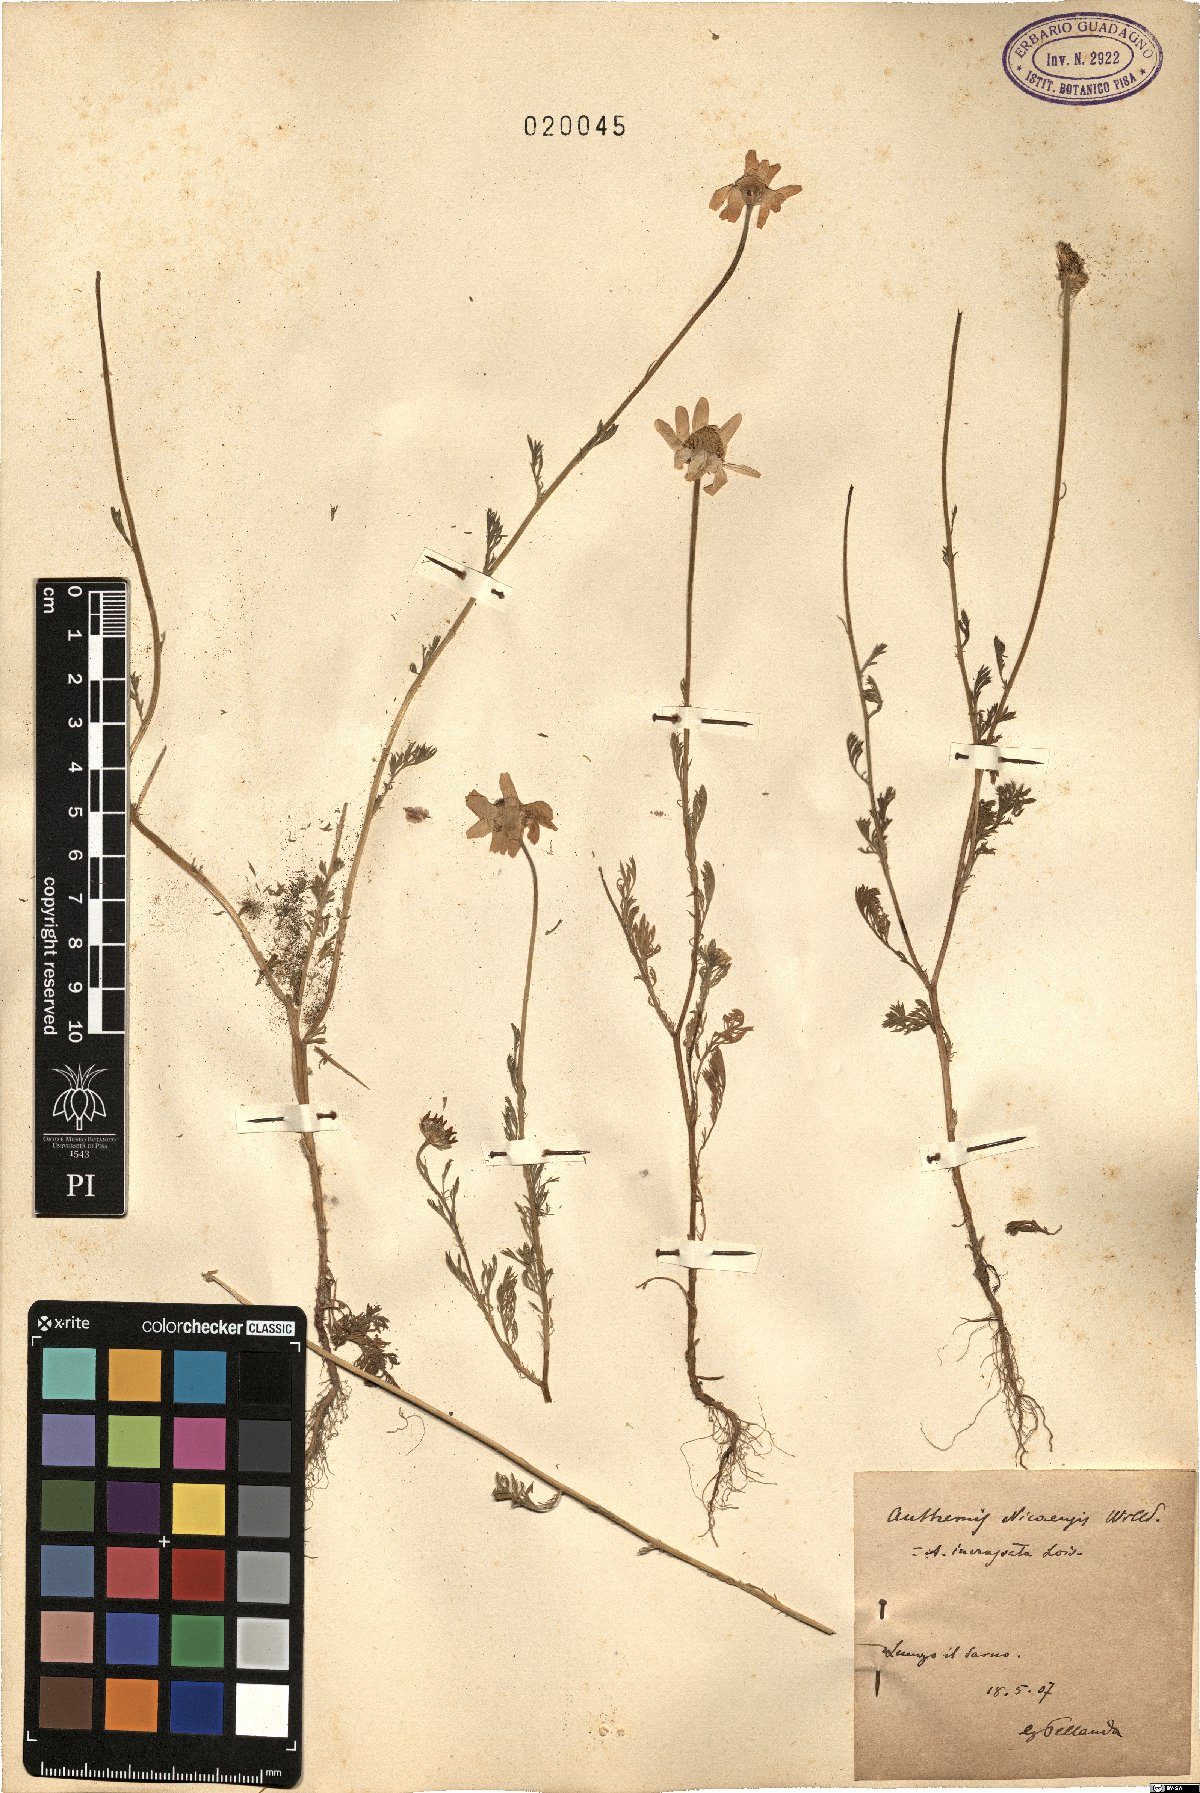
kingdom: Plantae
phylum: Tracheophyta
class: Magnoliopsida
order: Asterales
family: Asteraceae
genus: Anthemis
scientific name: Anthemis arvensis
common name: Corn chamomile
